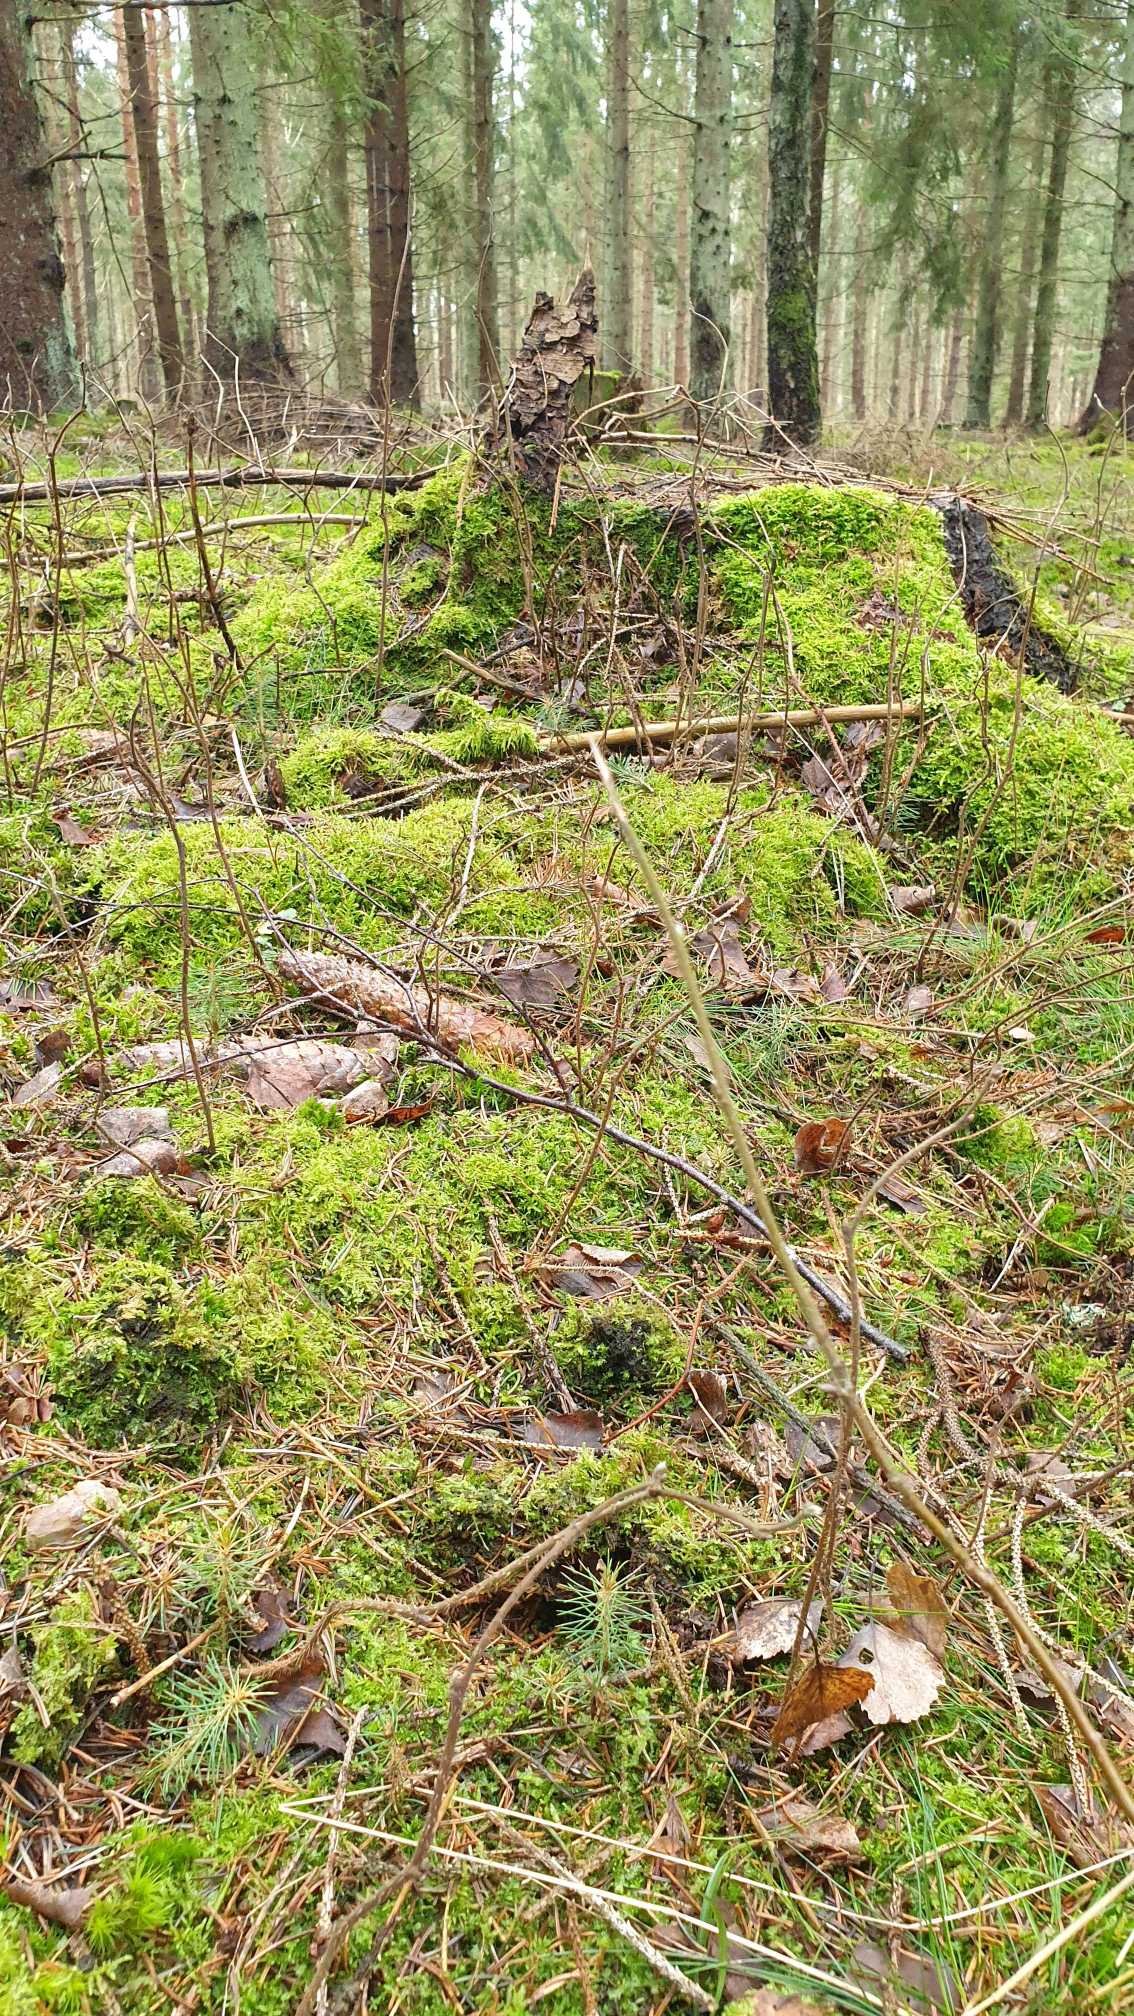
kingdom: Plantae
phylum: Bryophyta
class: Bryopsida
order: Buxbaumiales
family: Buxbaumiaceae
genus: Buxbaumia
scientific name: Buxbaumia viridis
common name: Grøn buxbaumia
